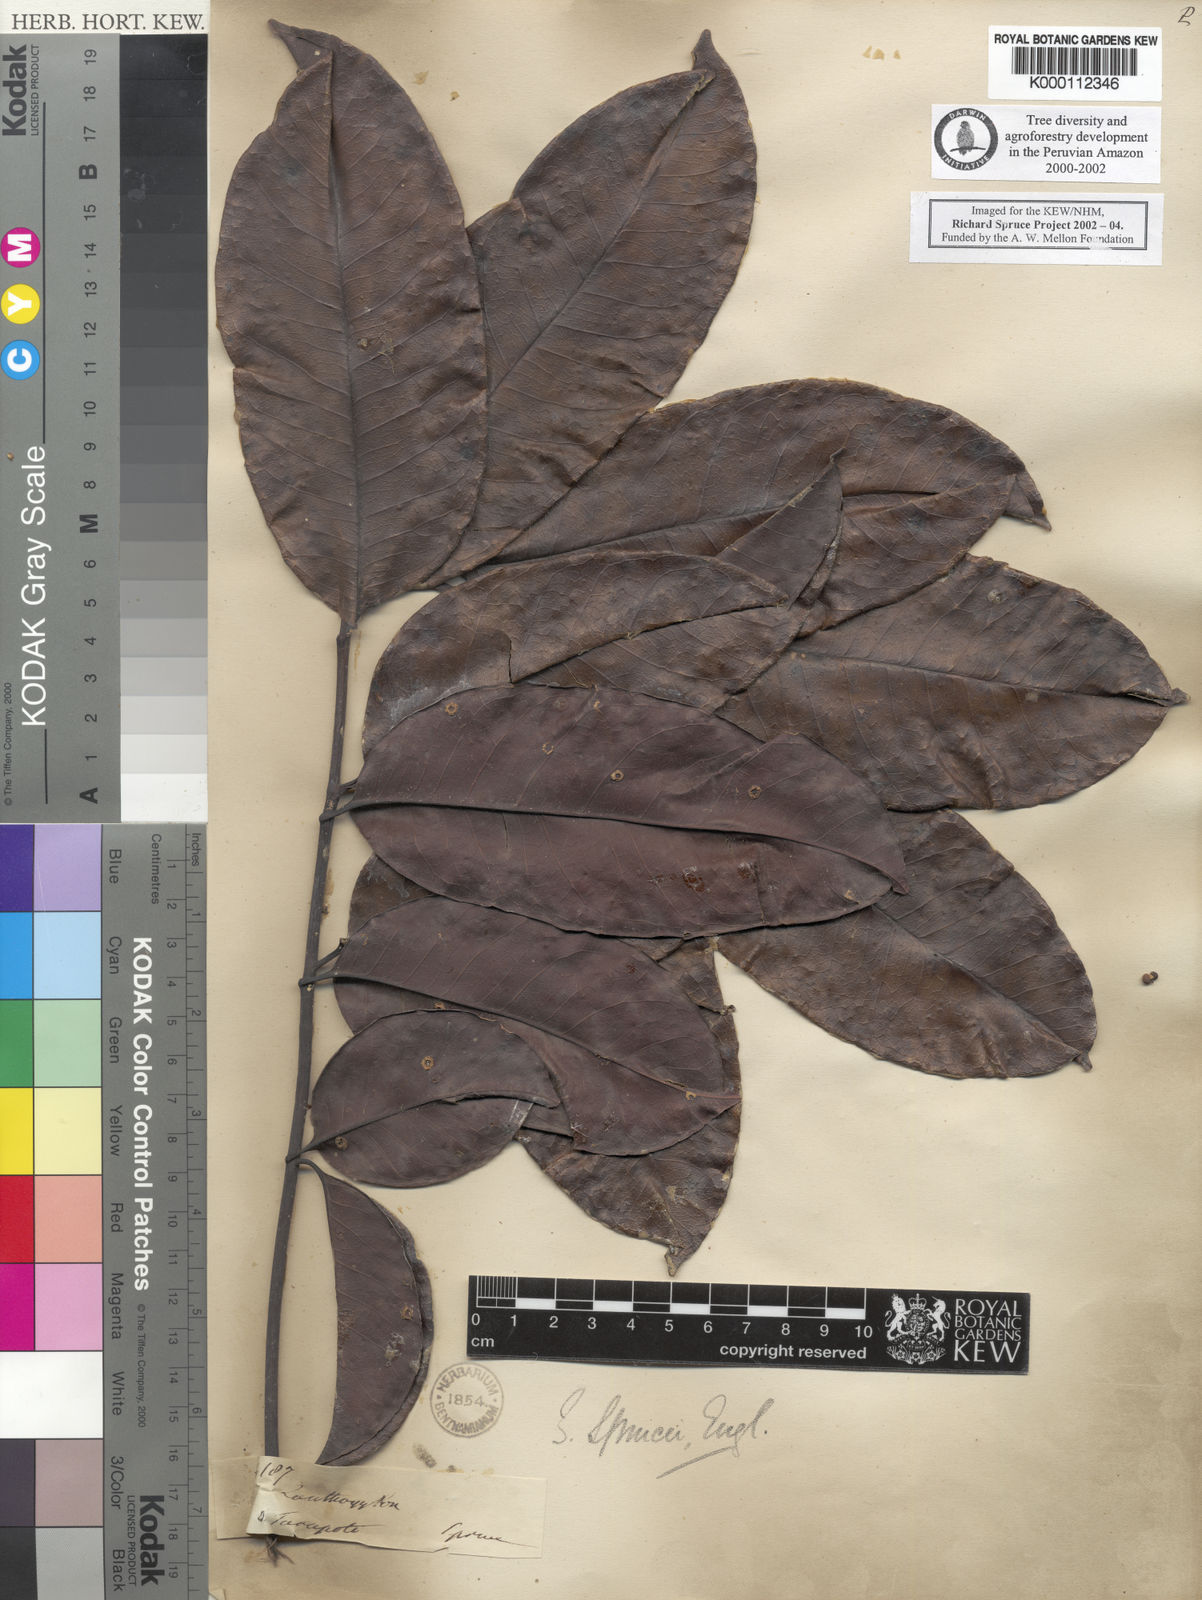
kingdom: Plantae
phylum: Tracheophyta
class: Magnoliopsida
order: Sapindales
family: Rutaceae
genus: Zanthoxylum
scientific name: Zanthoxylum sprucei
